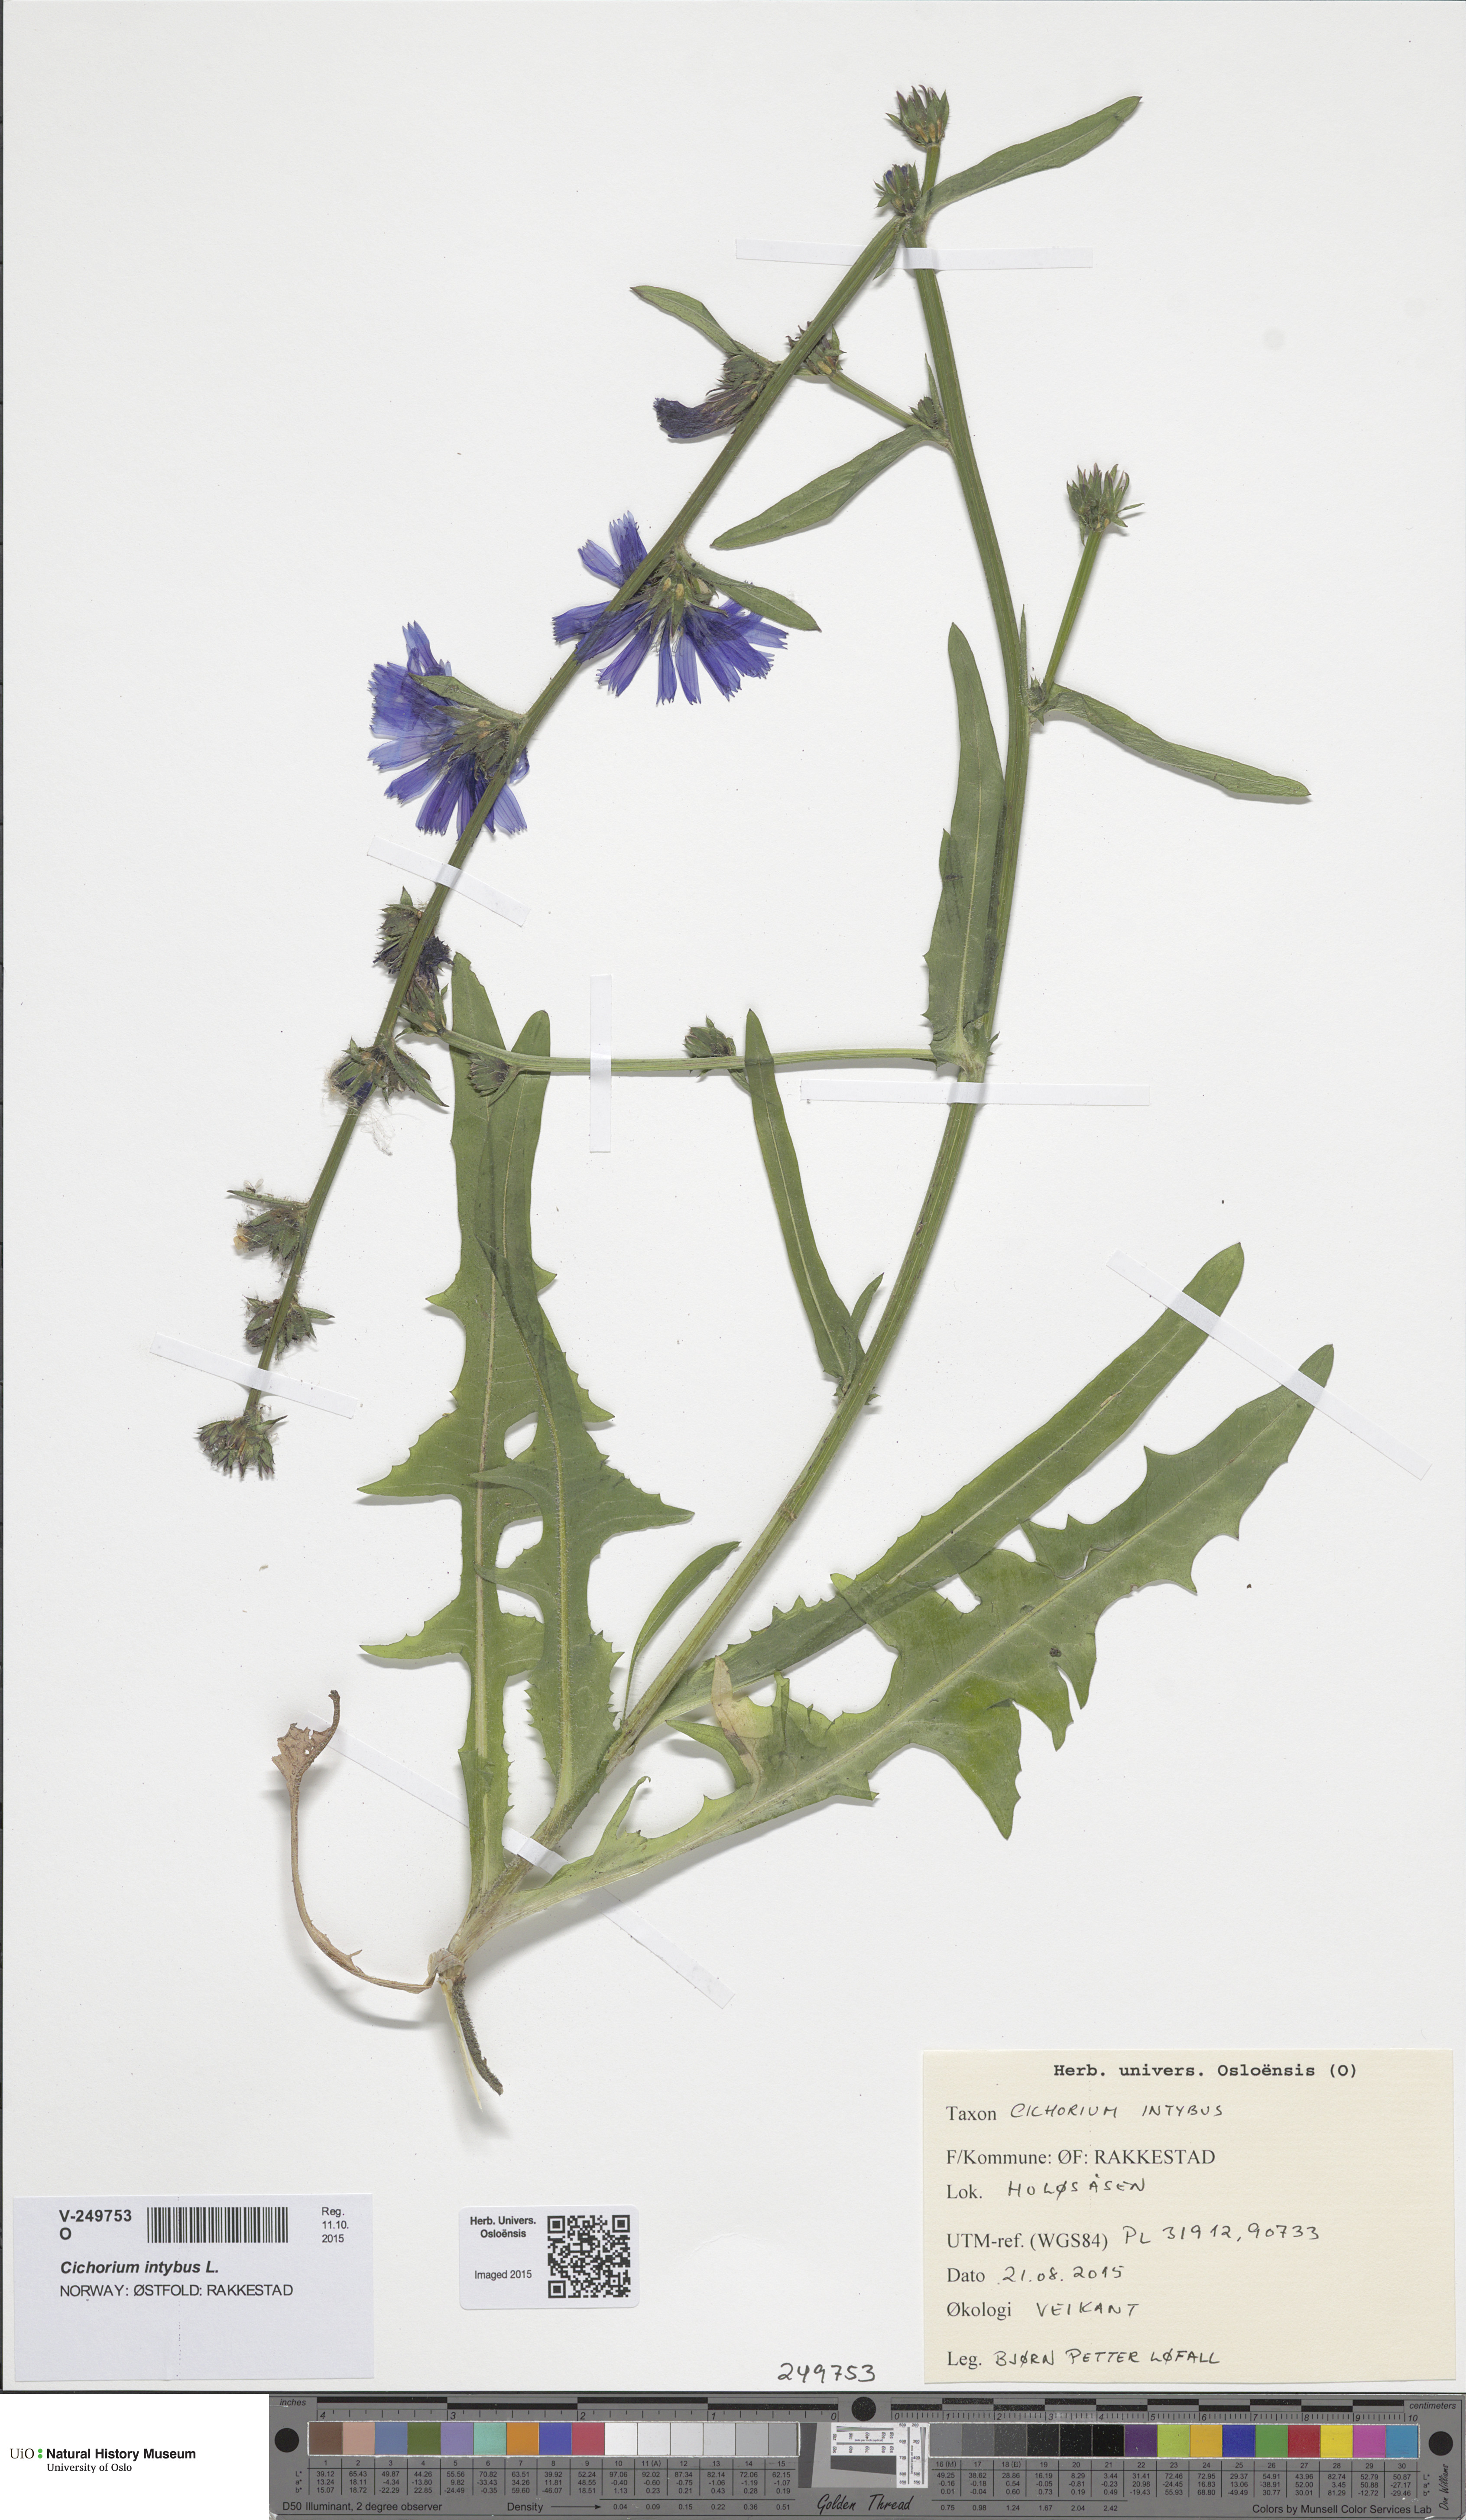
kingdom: Plantae
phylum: Tracheophyta
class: Magnoliopsida
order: Asterales
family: Asteraceae
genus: Cichorium
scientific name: Cichorium intybus
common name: Chicory
